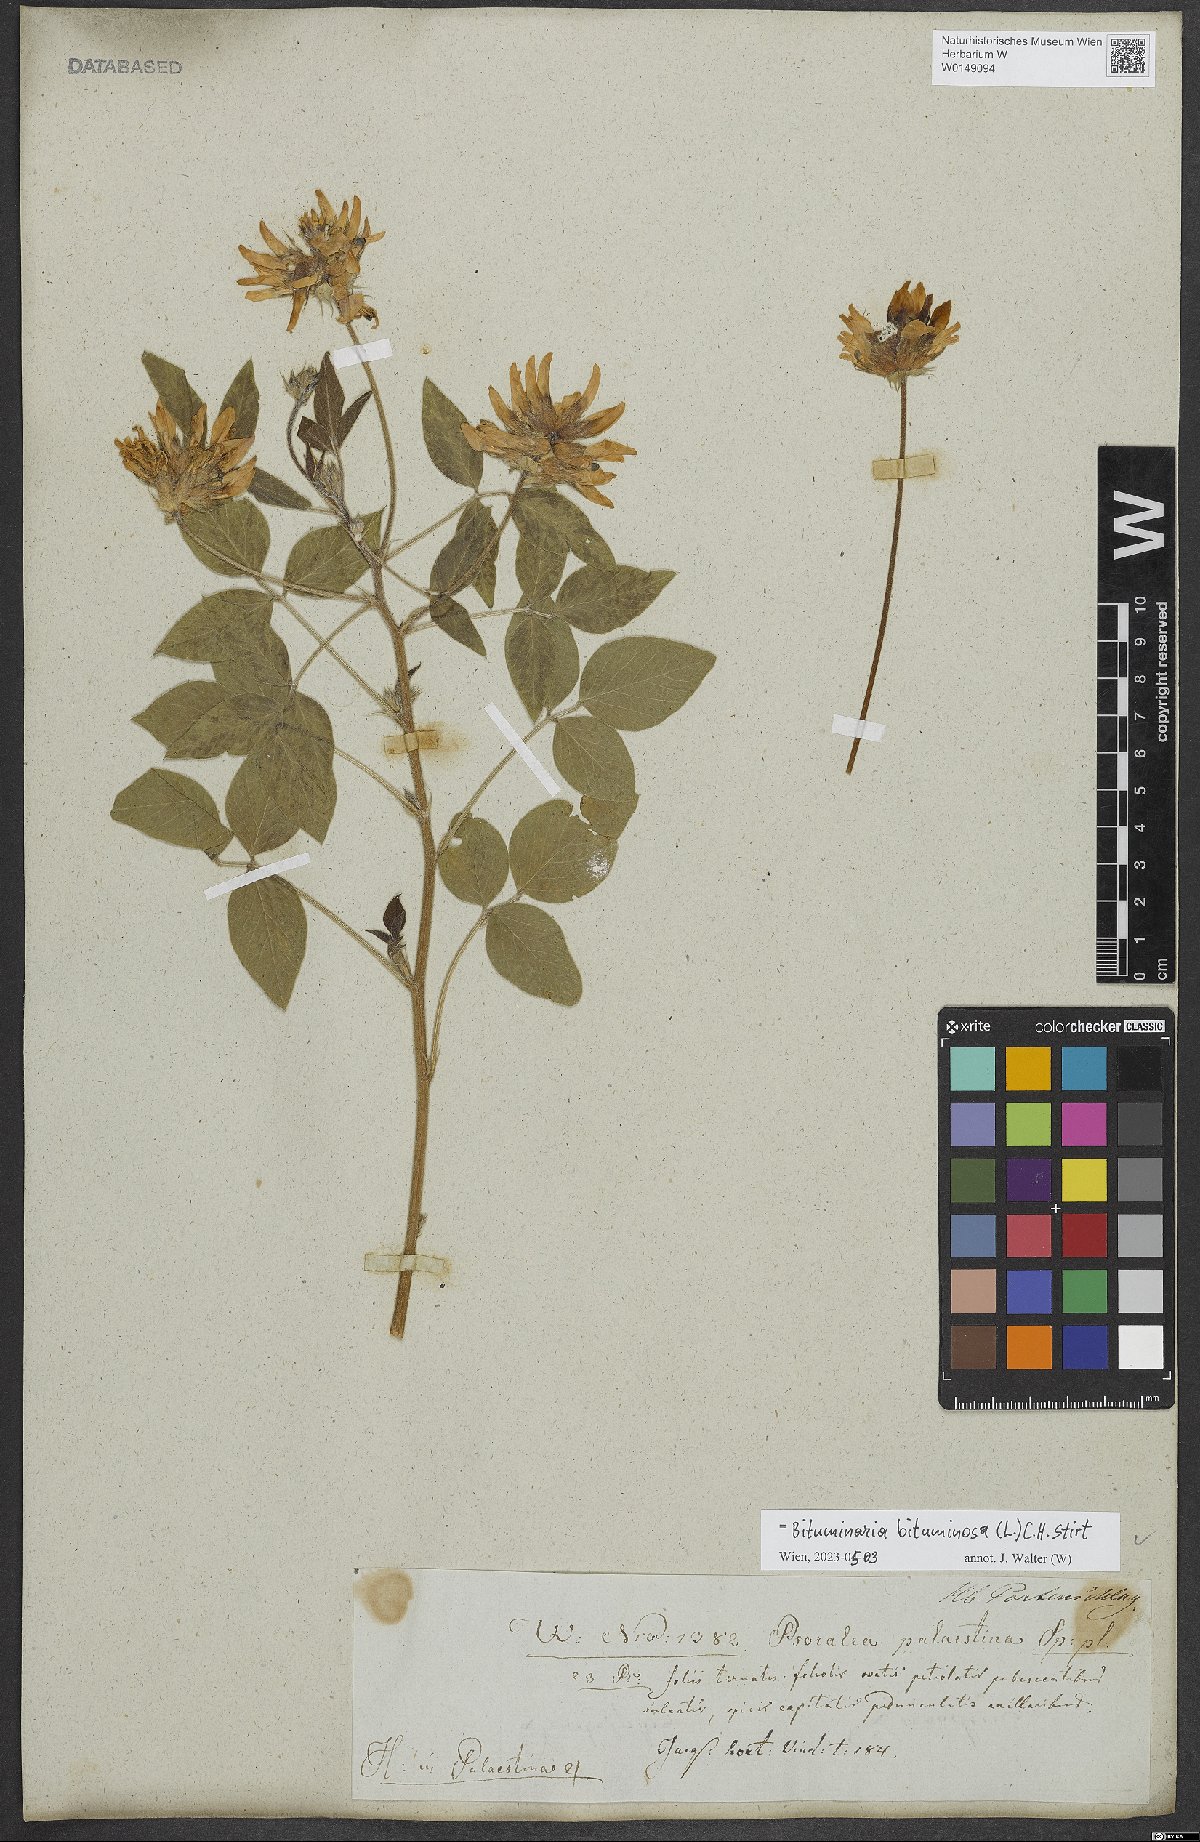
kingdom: Plantae
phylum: Tracheophyta
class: Magnoliopsida
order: Fabales
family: Fabaceae
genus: Bituminaria
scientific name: Bituminaria bituminosa
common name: Arabian pea
